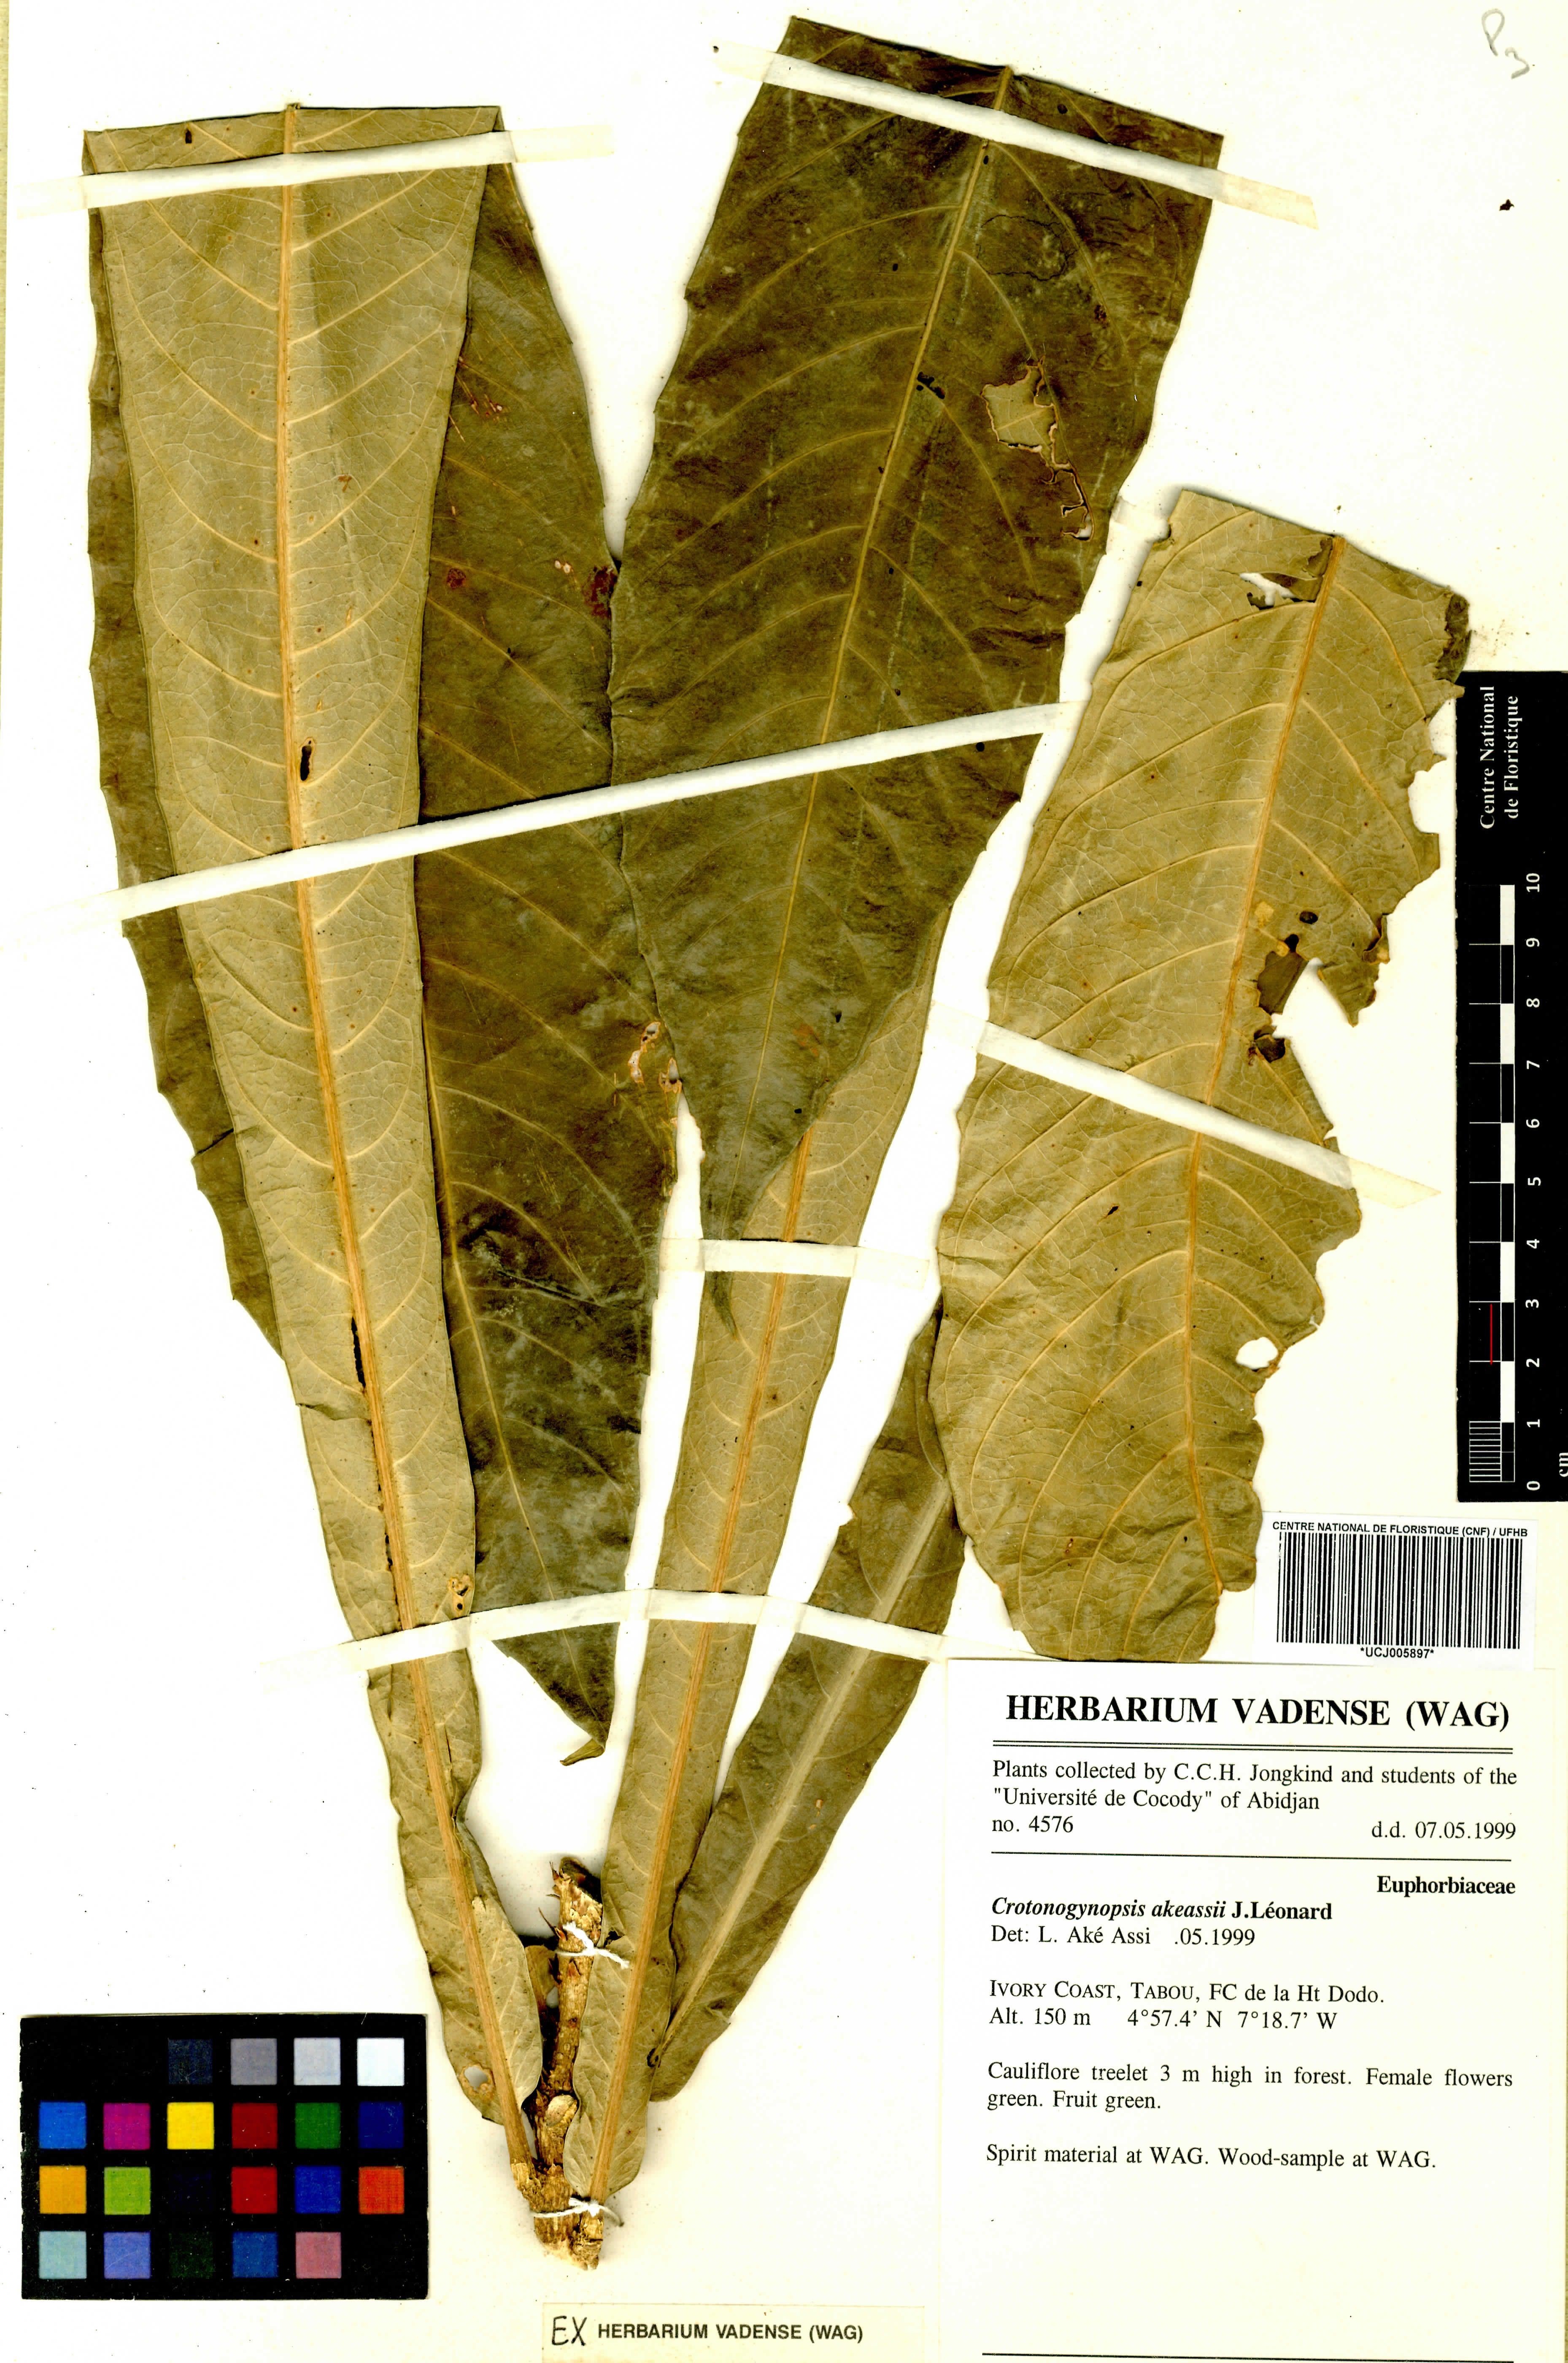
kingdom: Plantae
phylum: Tracheophyta
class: Magnoliopsida
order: Malpighiales
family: Euphorbiaceae
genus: Crotonogynopsis
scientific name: Crotonogynopsis akeassii
